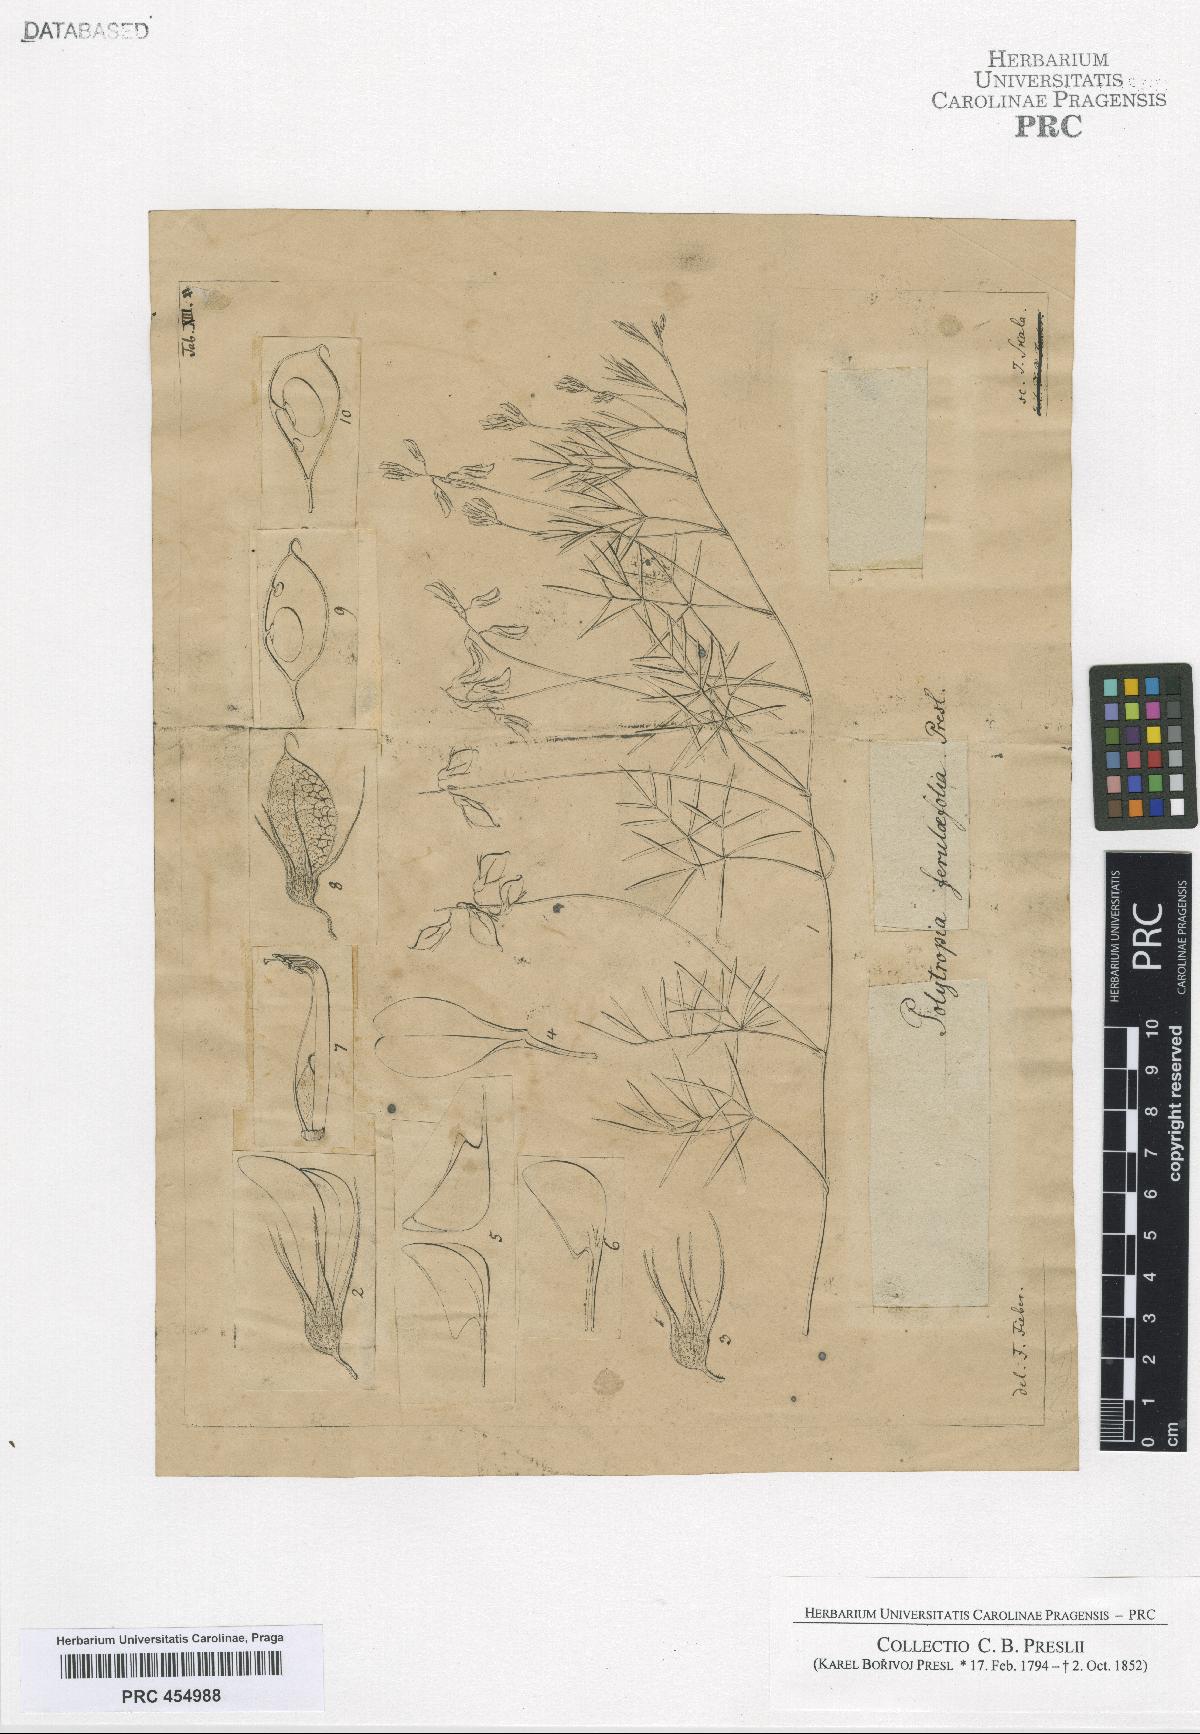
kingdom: Plantae
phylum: Tracheophyta
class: Magnoliopsida
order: Fabales
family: Fabaceae
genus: Rhynchosia
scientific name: Rhynchosia ferulifolia
